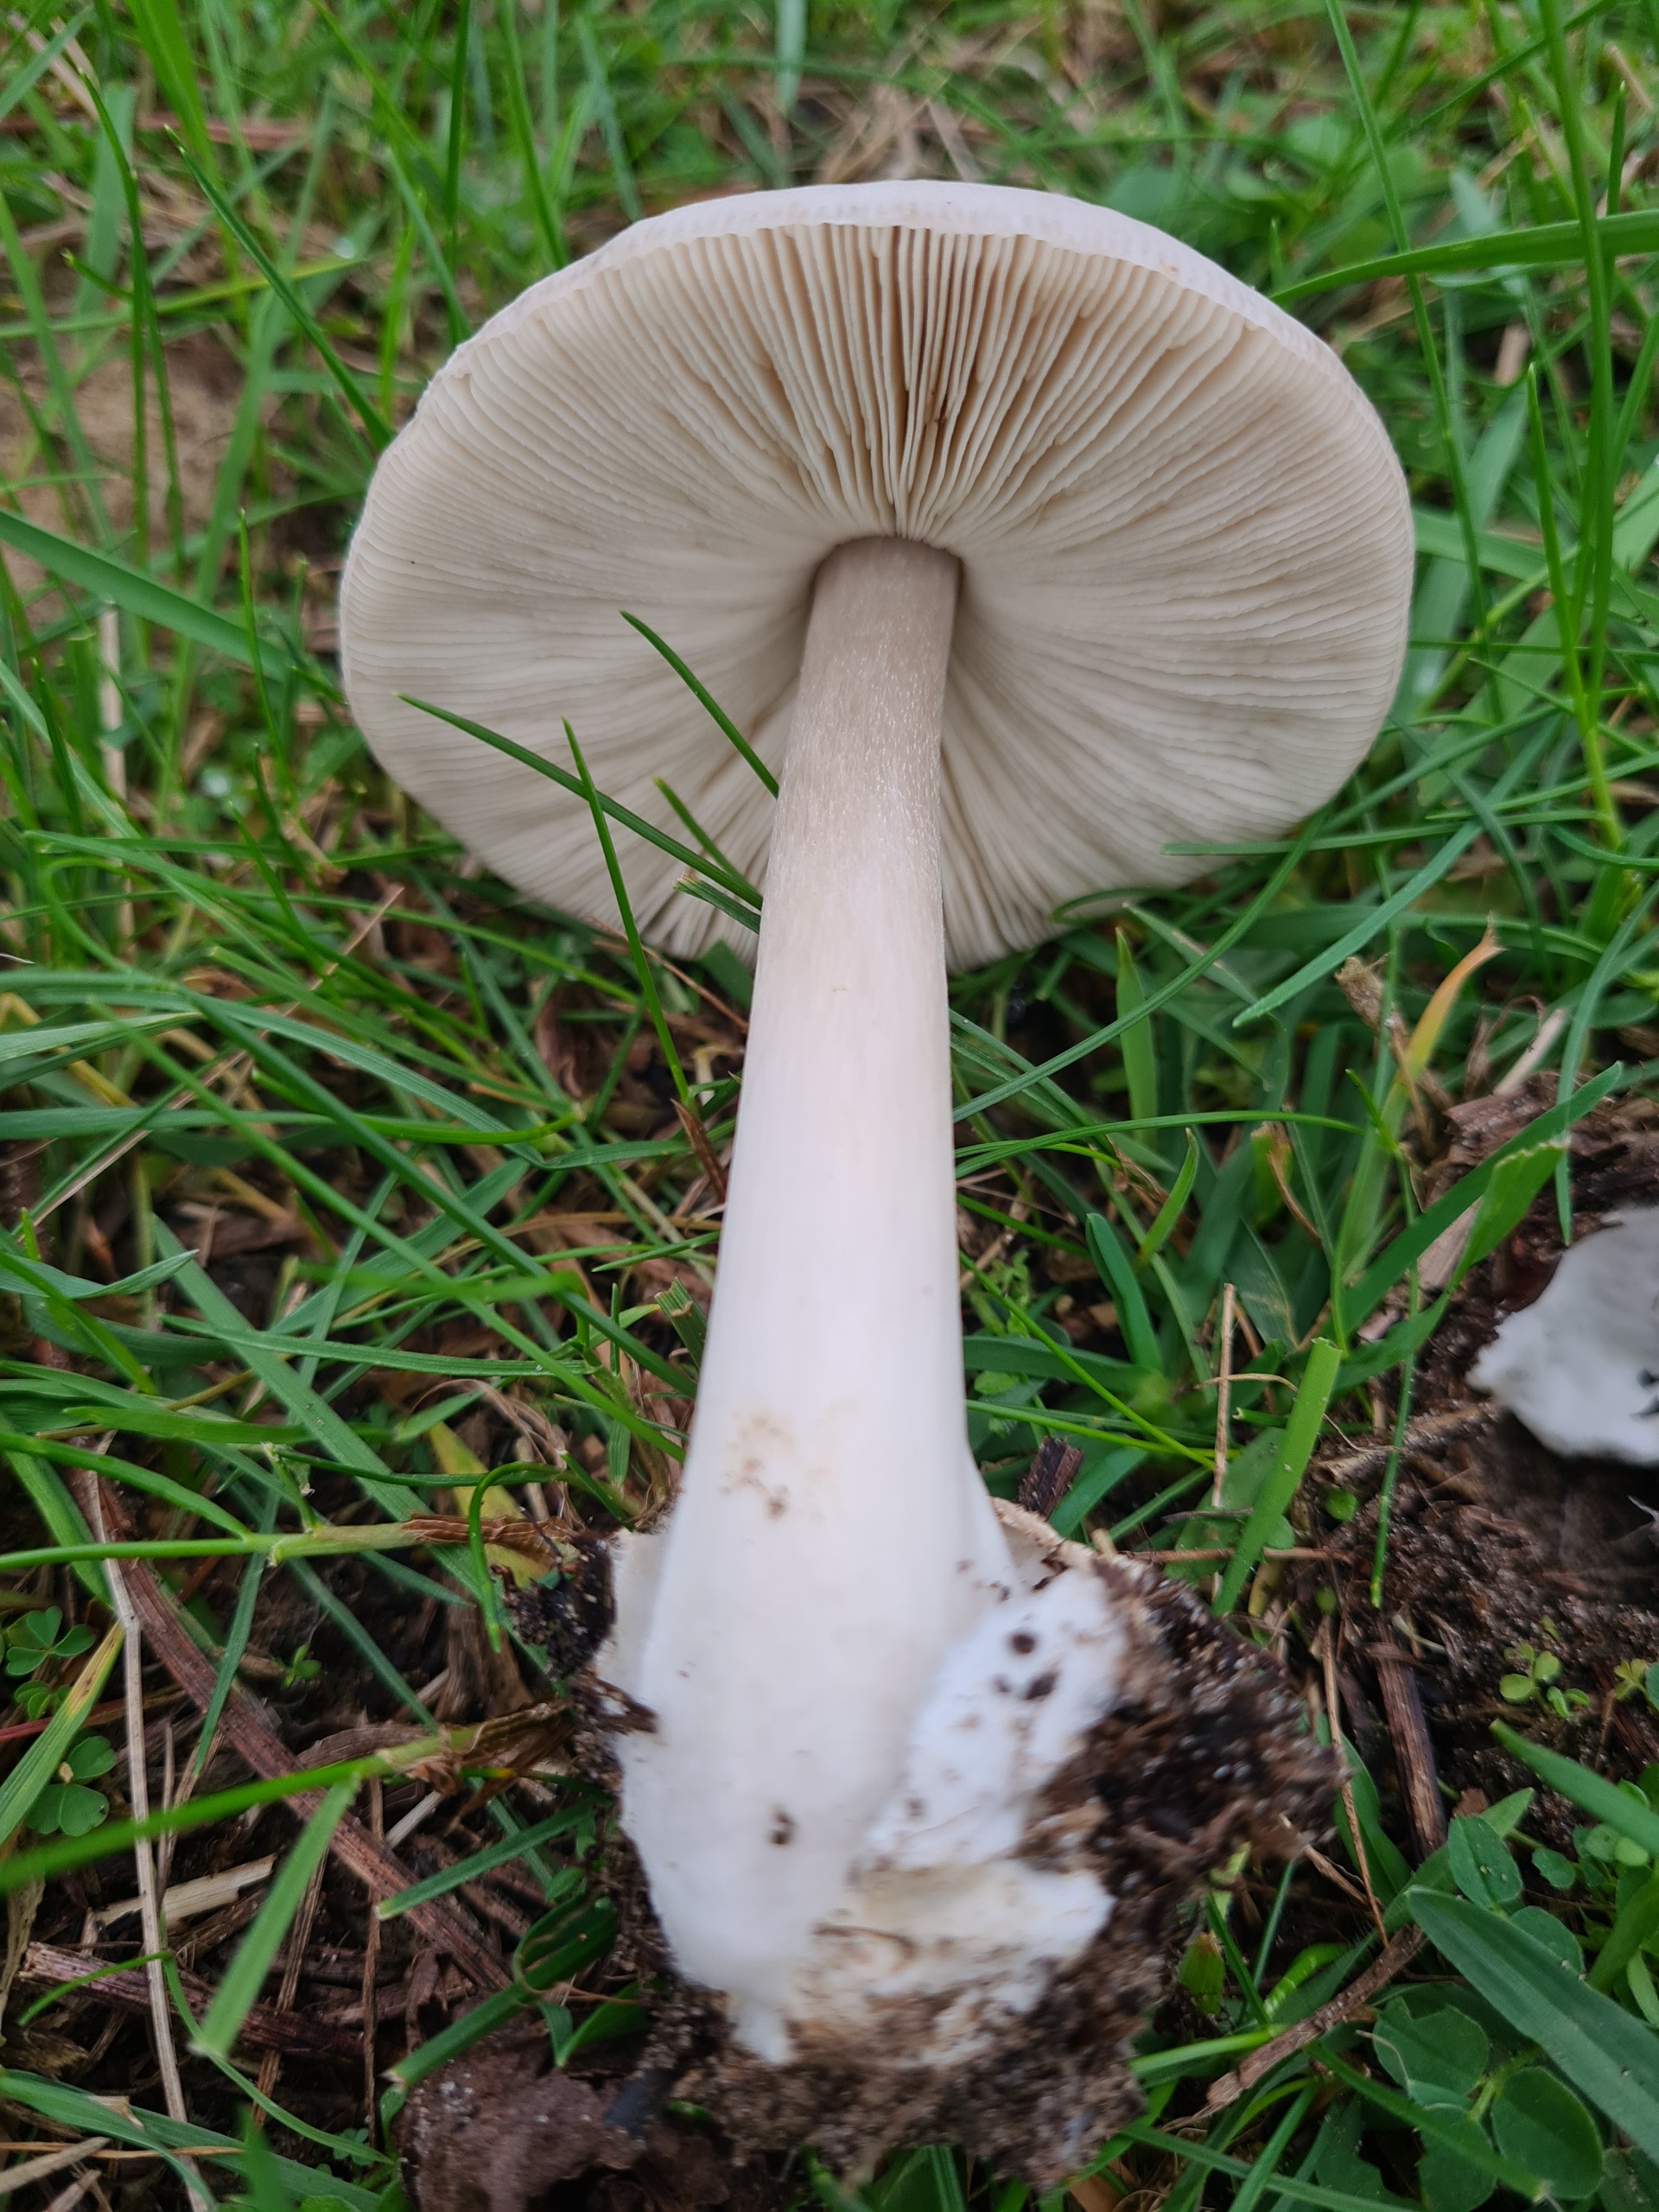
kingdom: Fungi
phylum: Basidiomycota
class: Agaricomycetes
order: Agaricales
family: Pluteaceae
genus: Volvopluteus
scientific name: Volvopluteus gloiocephalus
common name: Høj posesvamp
